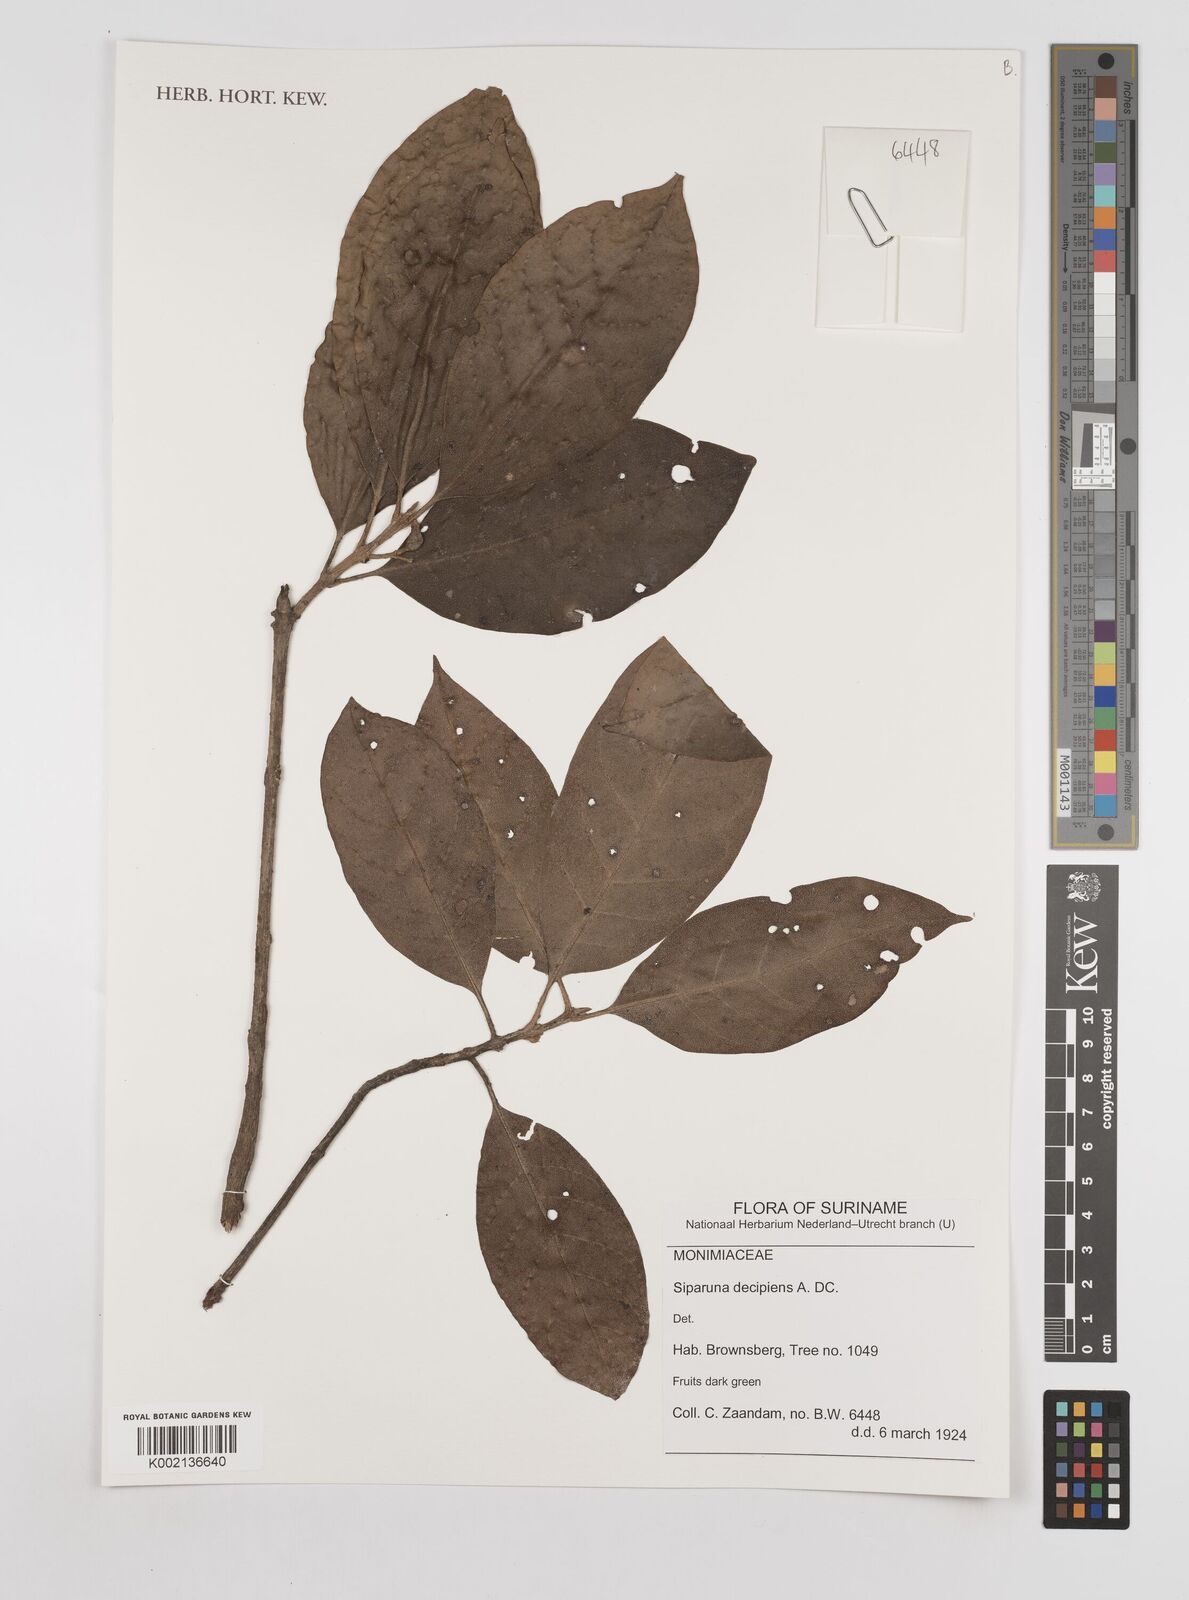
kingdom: Plantae
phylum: Tracheophyta
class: Magnoliopsida
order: Laurales
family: Siparunaceae
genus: Siparuna
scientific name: Siparuna decipiens
